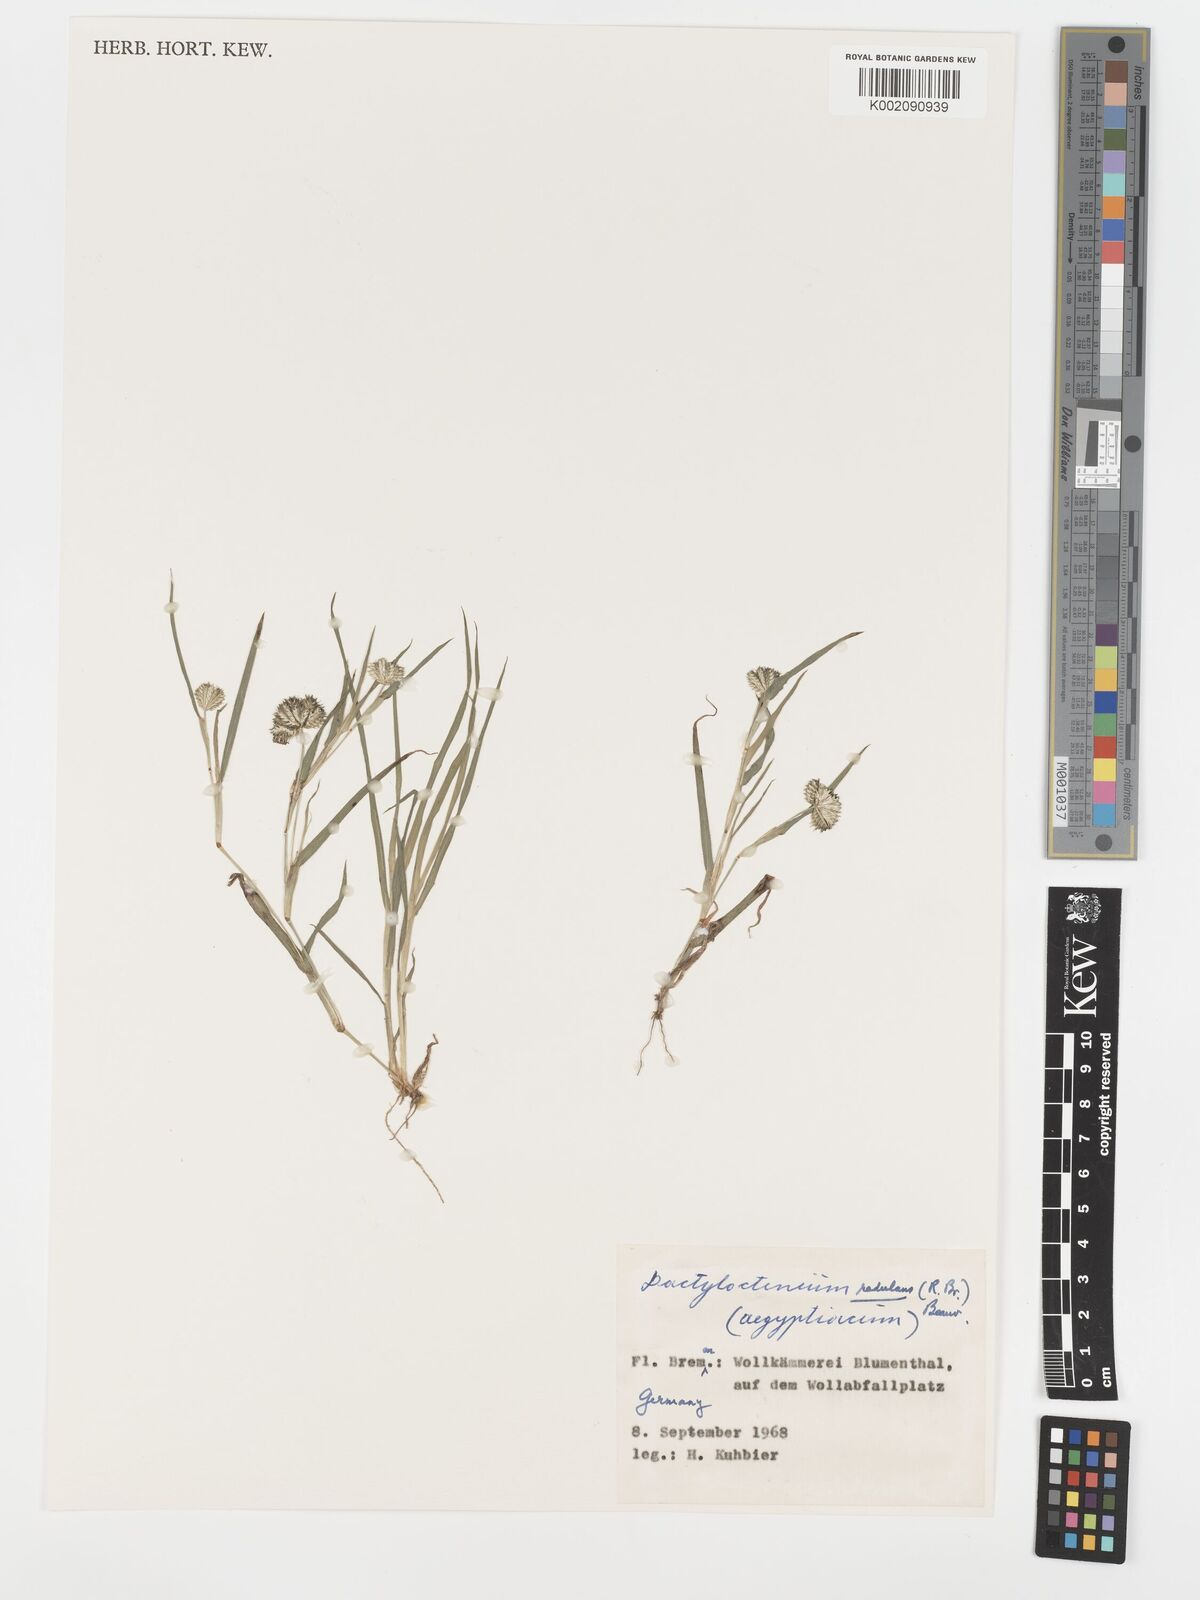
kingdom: Plantae
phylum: Tracheophyta
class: Liliopsida
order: Poales
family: Poaceae
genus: Dactyloctenium
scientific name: Dactyloctenium radulans
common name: Button-grass
